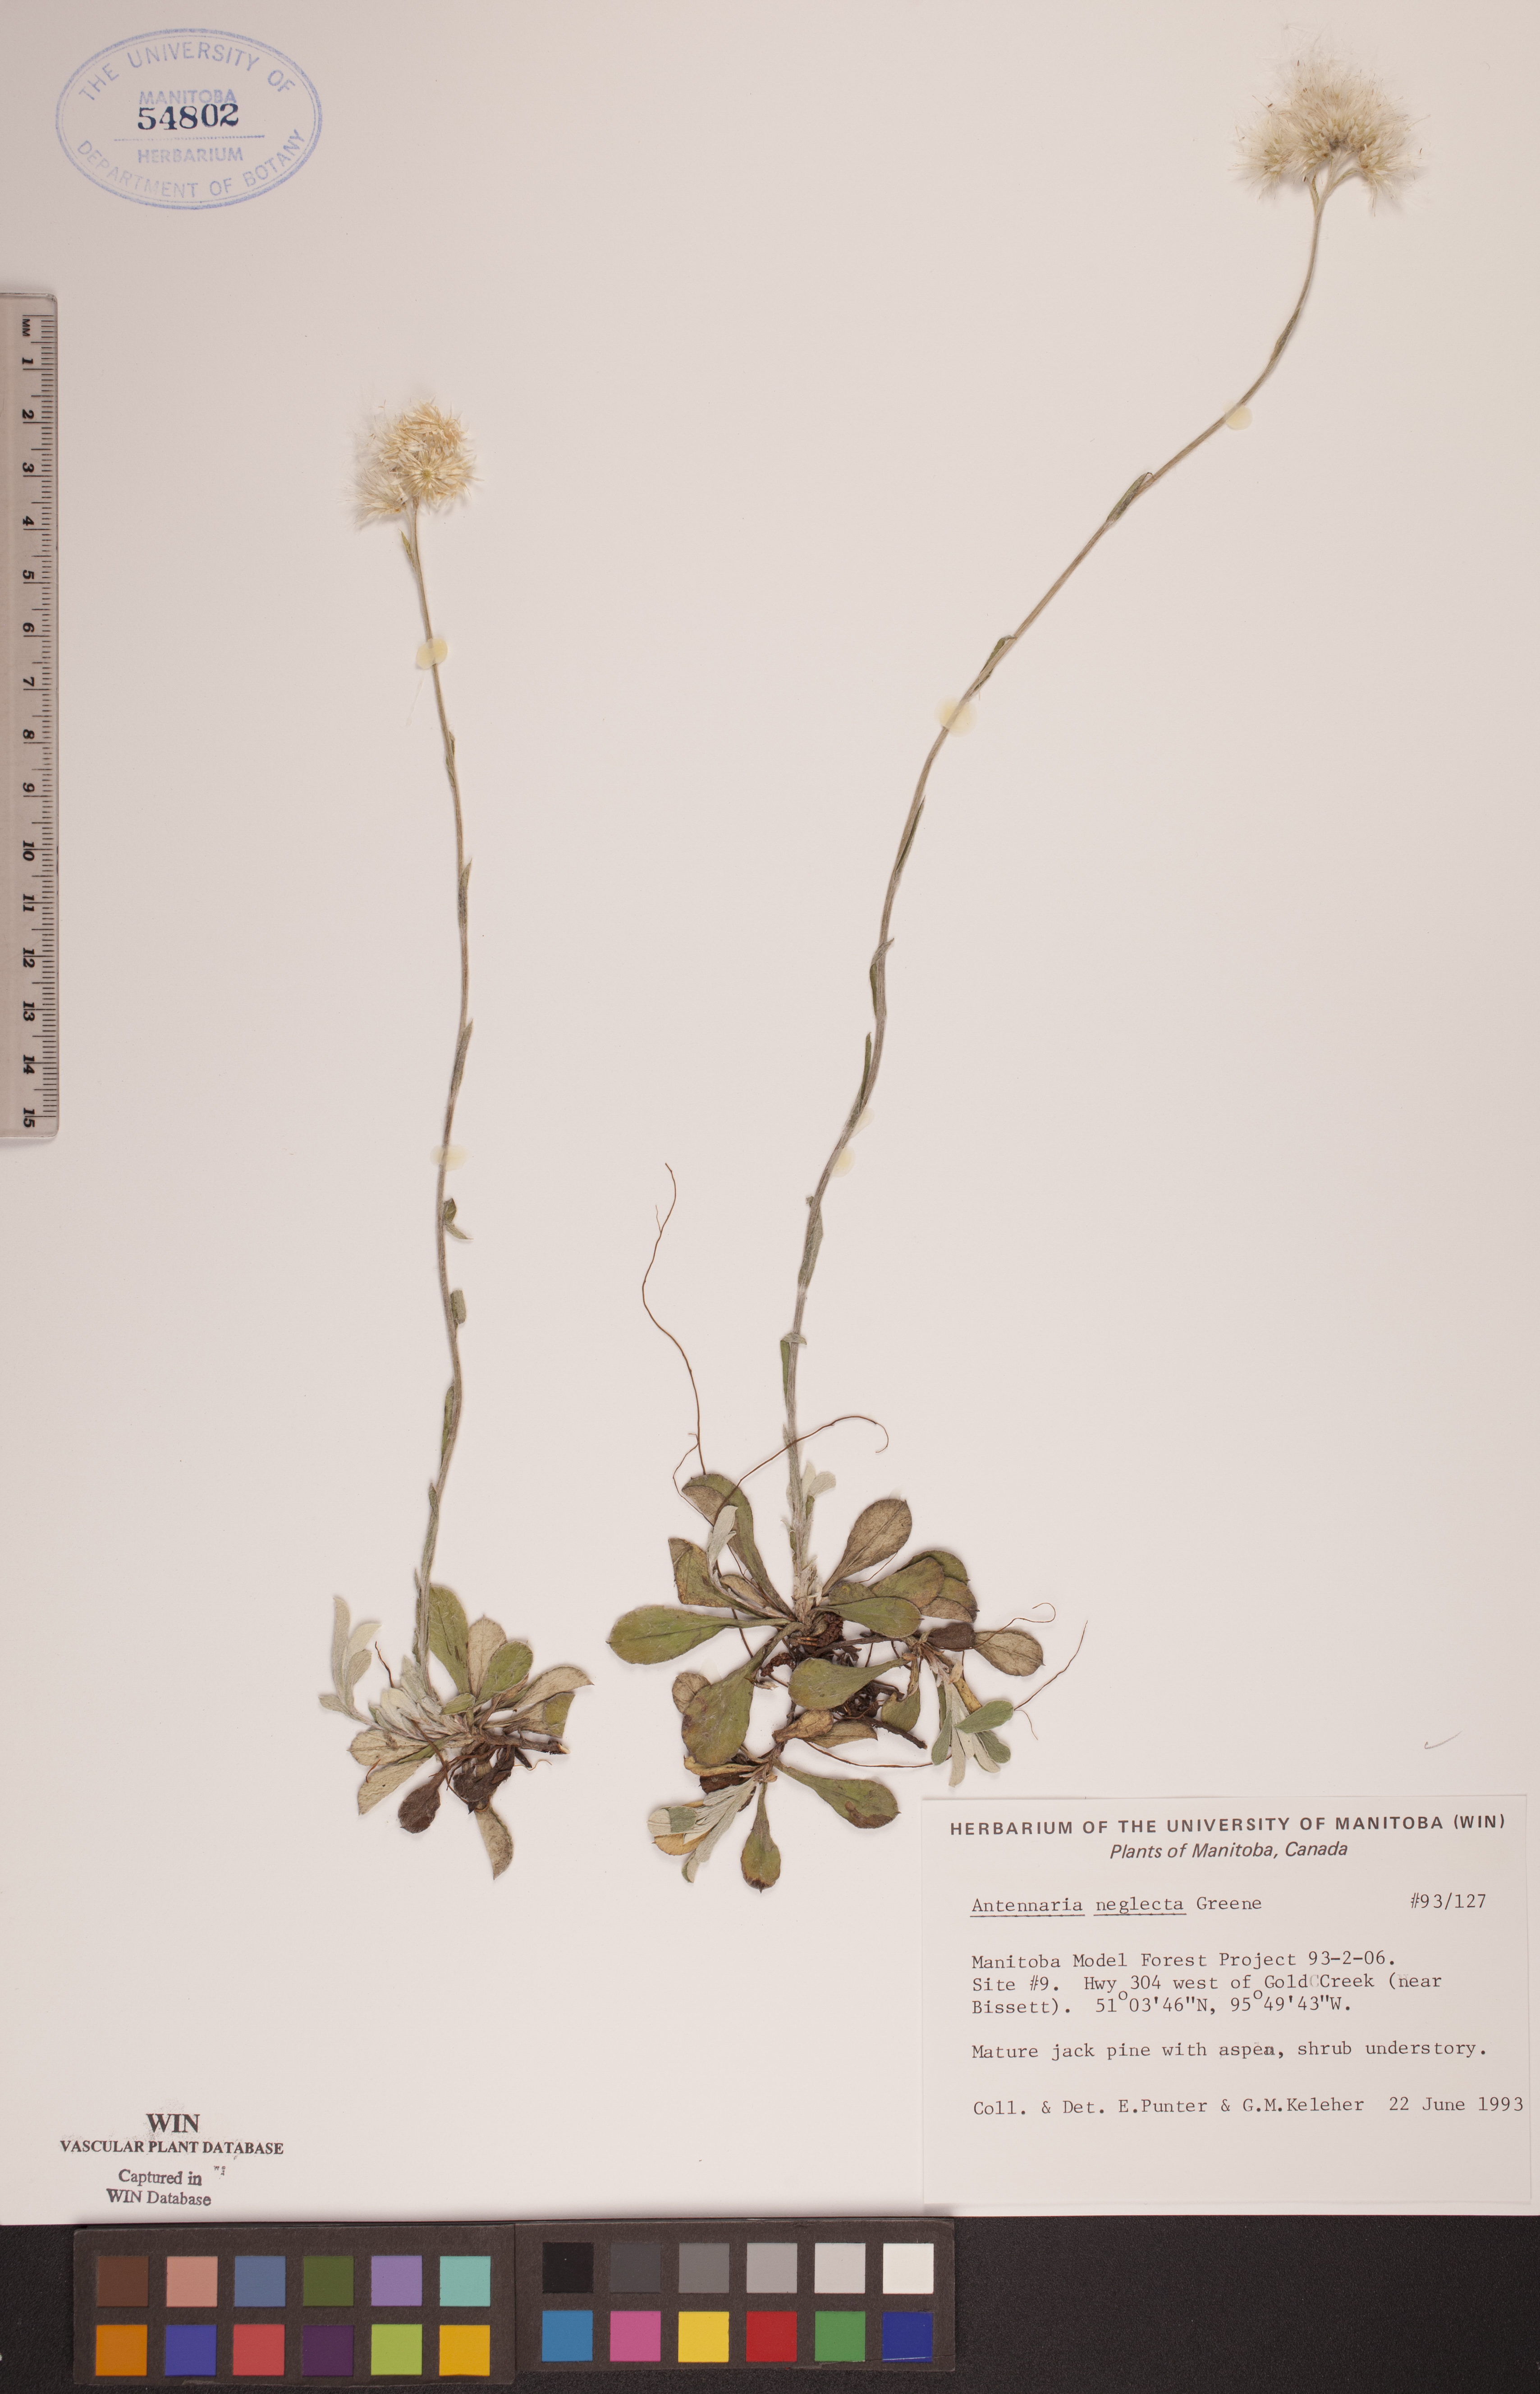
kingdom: Plantae
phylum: Tracheophyta
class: Magnoliopsida
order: Asterales
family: Asteraceae
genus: Antennaria
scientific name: Antennaria neglecta
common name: Field pussytoes
